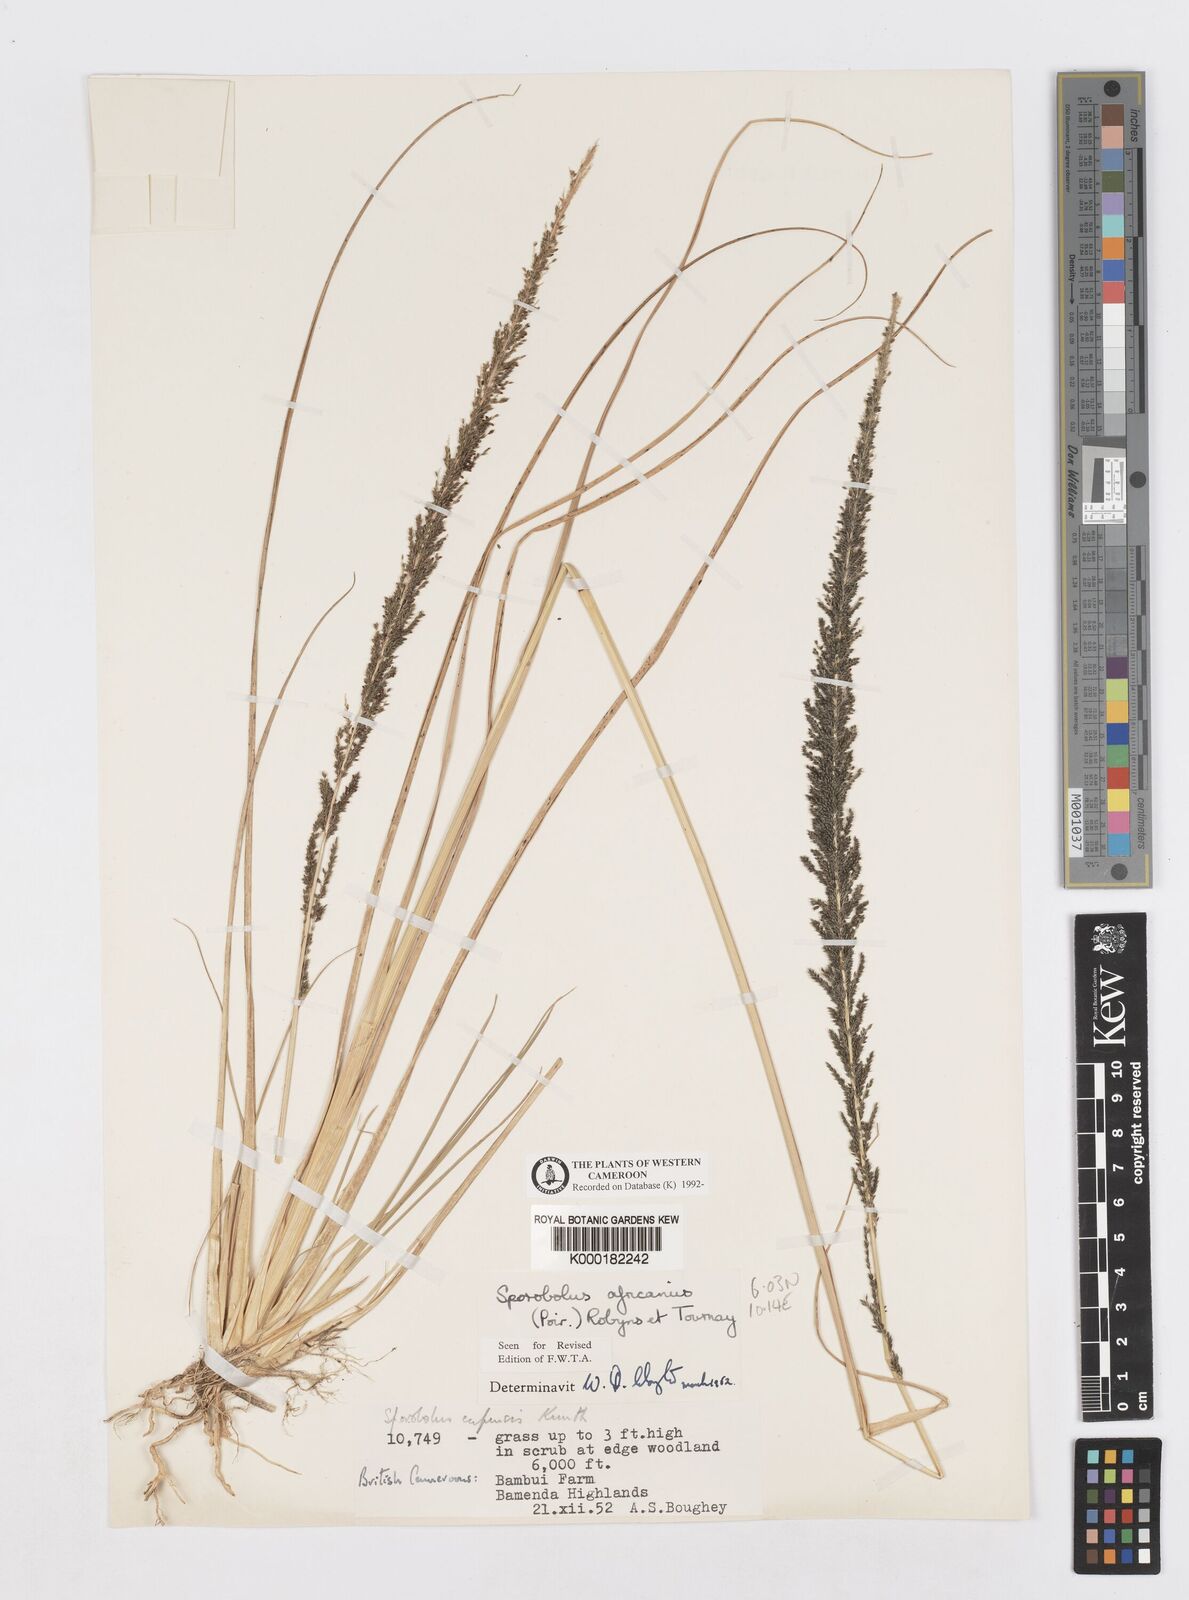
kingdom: Plantae
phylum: Tracheophyta
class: Liliopsida
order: Poales
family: Poaceae
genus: Sporobolus
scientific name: Sporobolus africanus
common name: African dropseed
